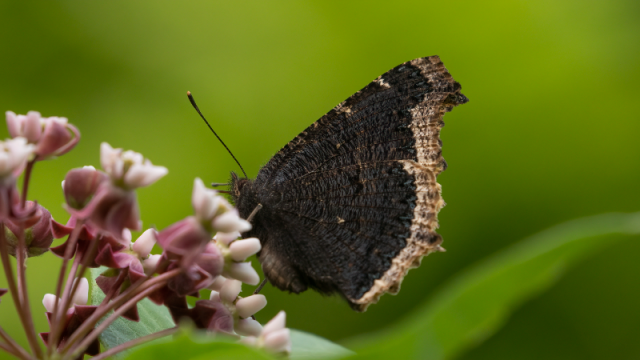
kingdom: Animalia
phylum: Arthropoda
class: Insecta
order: Lepidoptera
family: Nymphalidae
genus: Nymphalis
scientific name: Nymphalis antiopa
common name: Mourning Cloak
